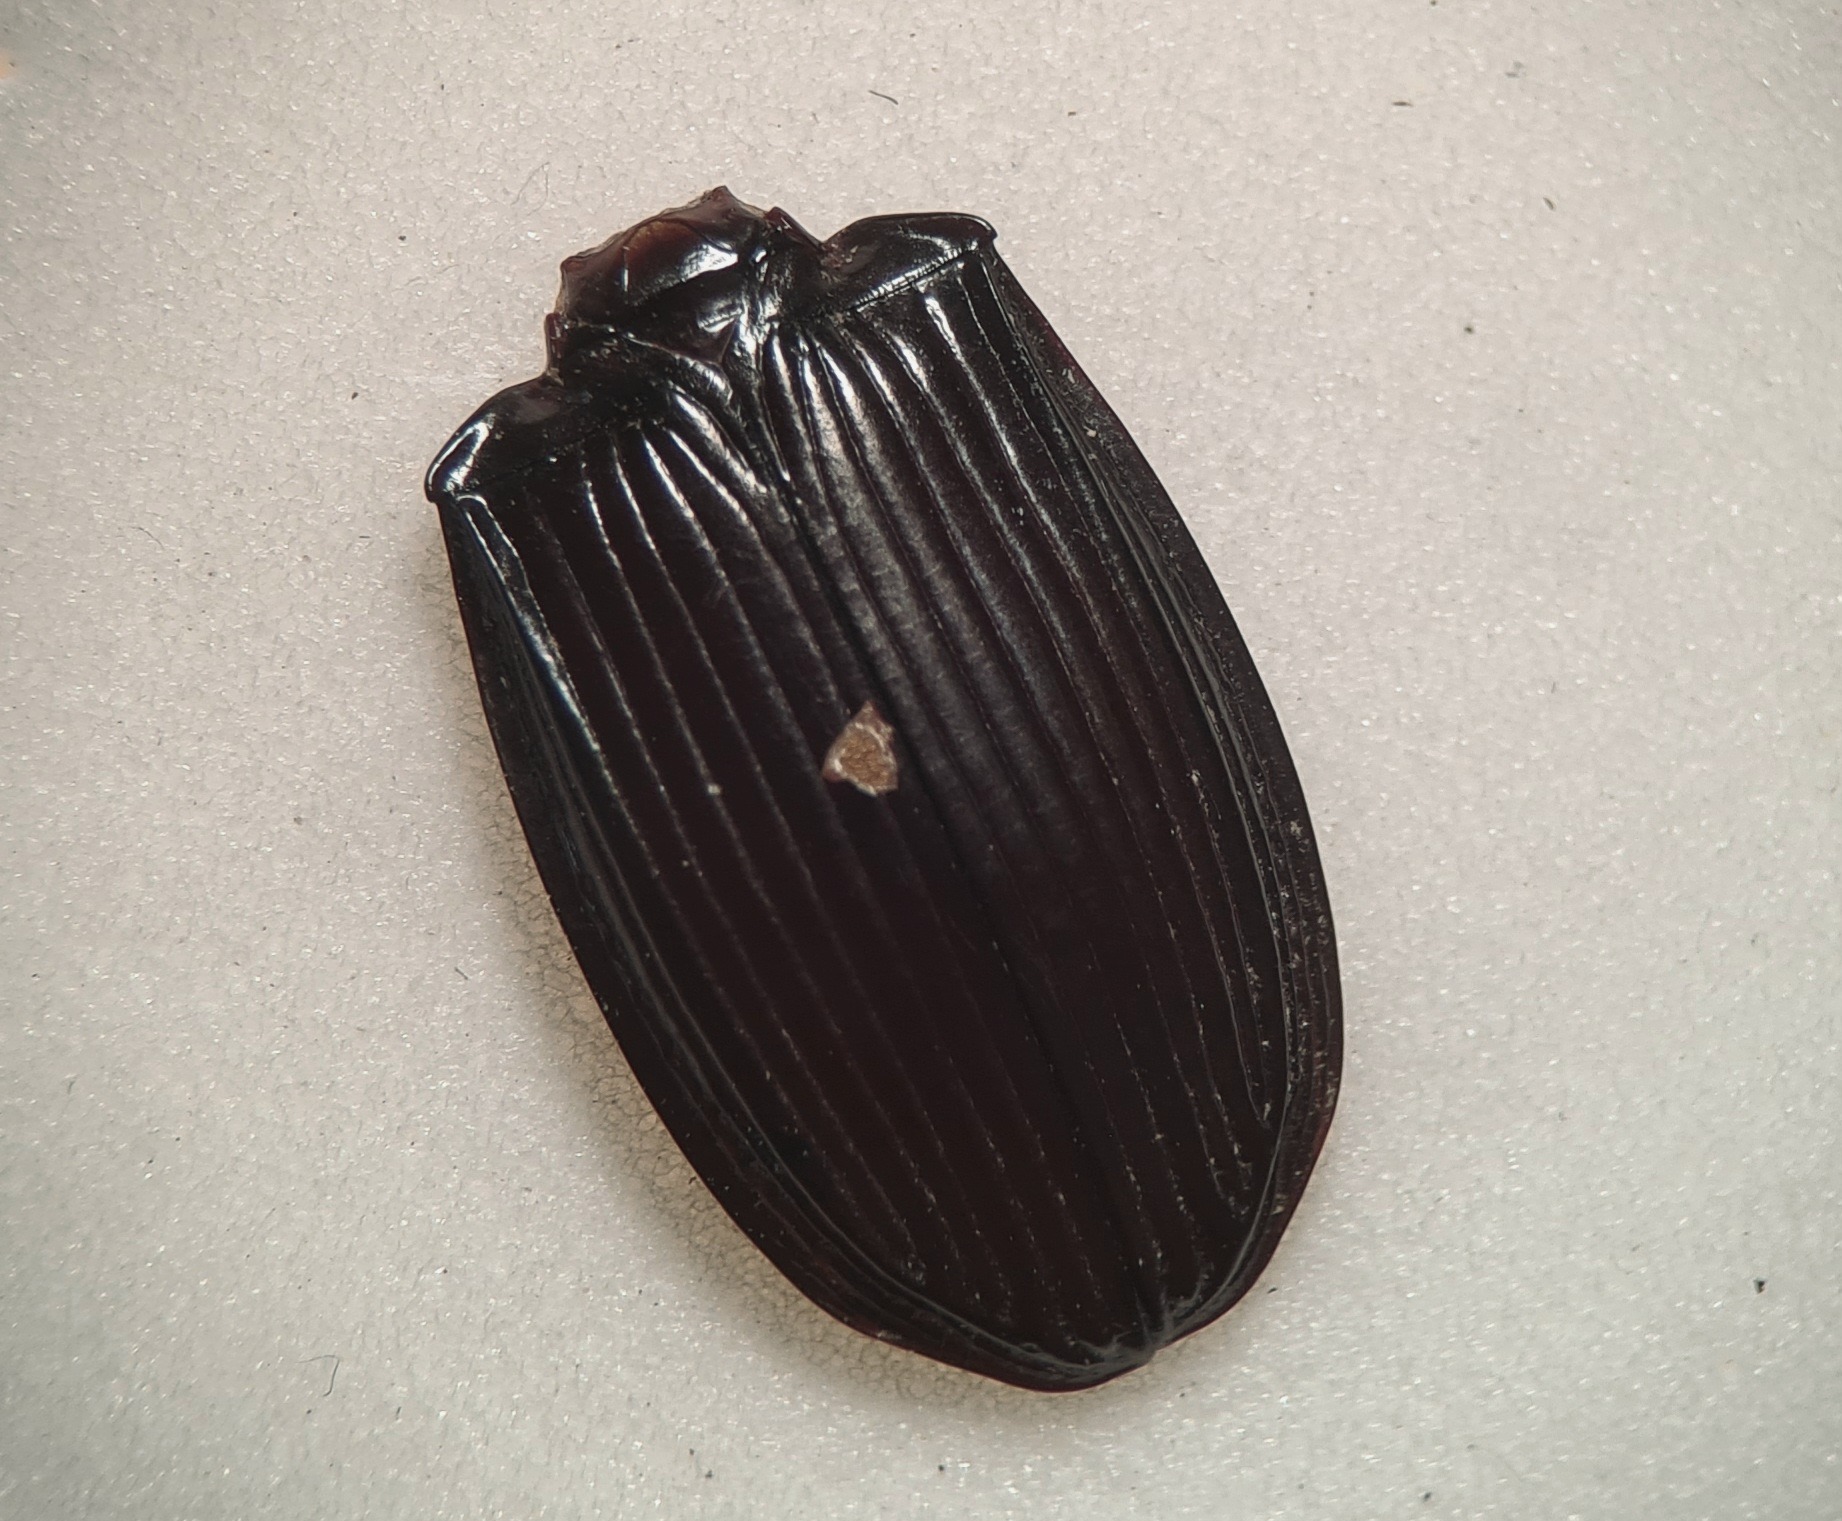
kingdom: Animalia
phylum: Arthropoda
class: Insecta
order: Coleoptera
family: Carabidae
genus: Abax
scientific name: Abax parallelepipedus
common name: Bred muldløber
